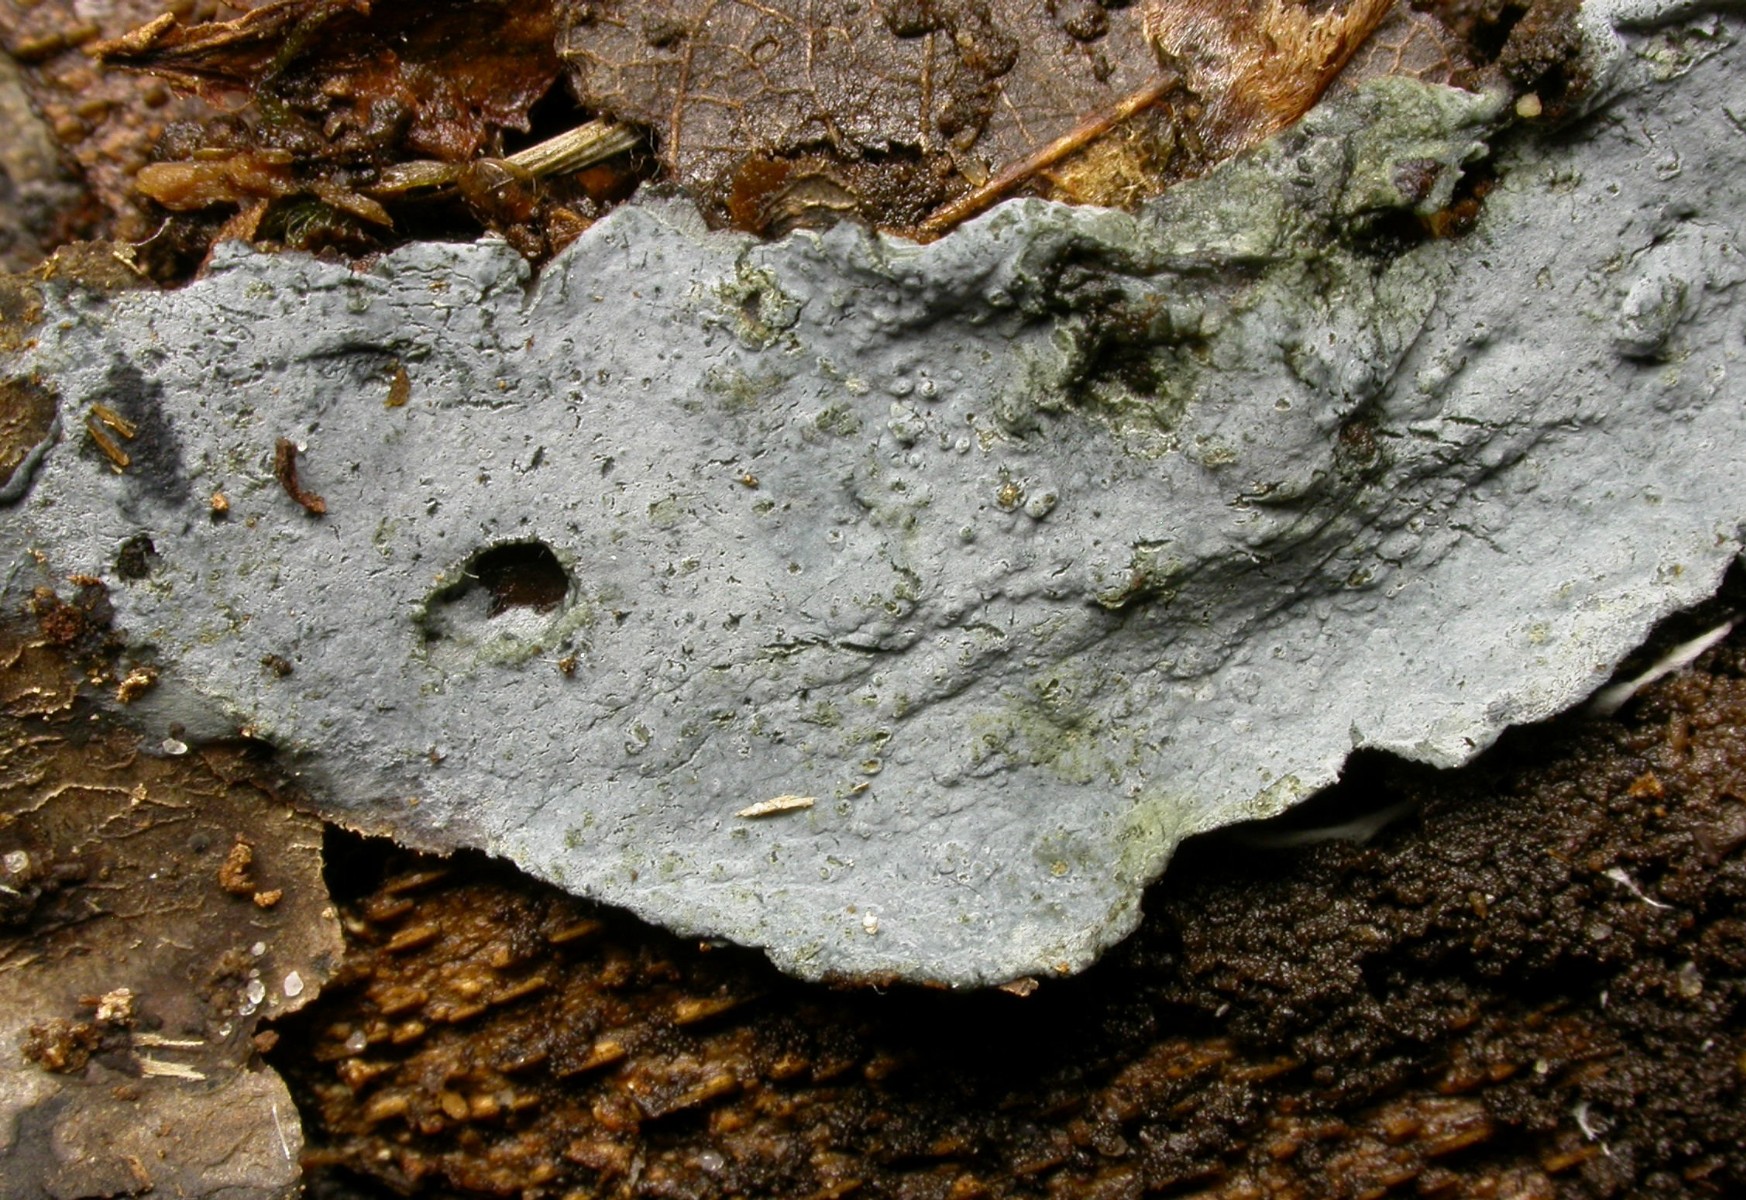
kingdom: Fungi
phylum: Basidiomycota
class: Agaricomycetes
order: Atheliales
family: Atheliaceae
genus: Byssocorticium
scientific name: Byssocorticium atrovirens
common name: blå førnehinde
